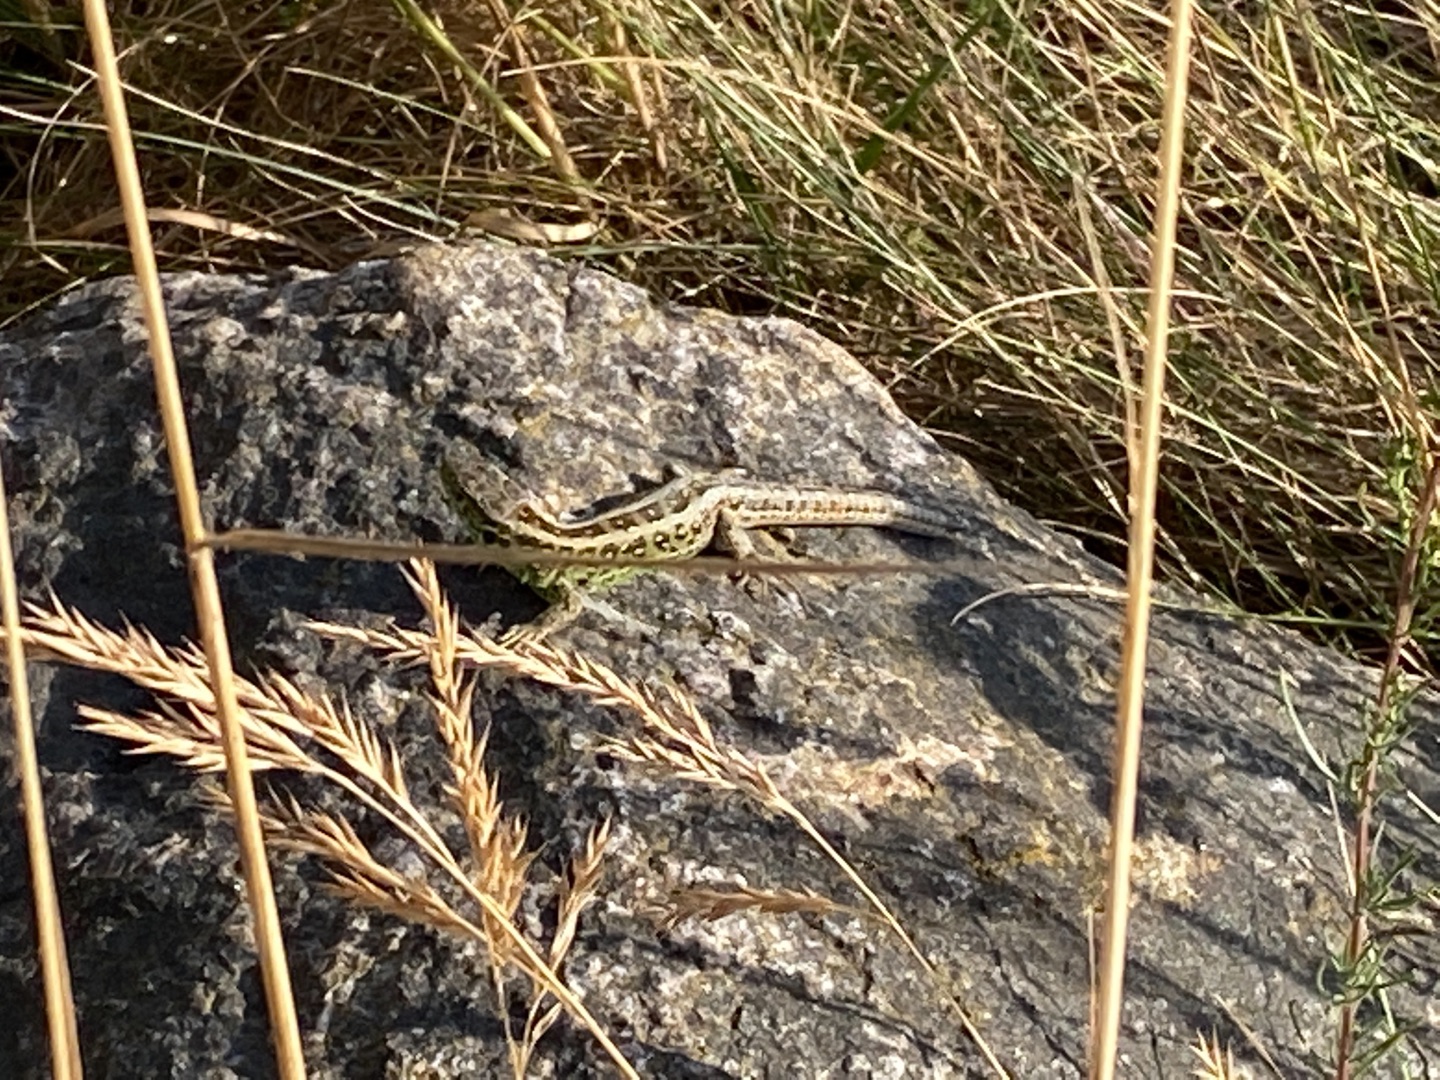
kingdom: Animalia
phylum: Chordata
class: Squamata
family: Lacertidae
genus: Lacerta
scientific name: Lacerta agilis
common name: Markfirben
